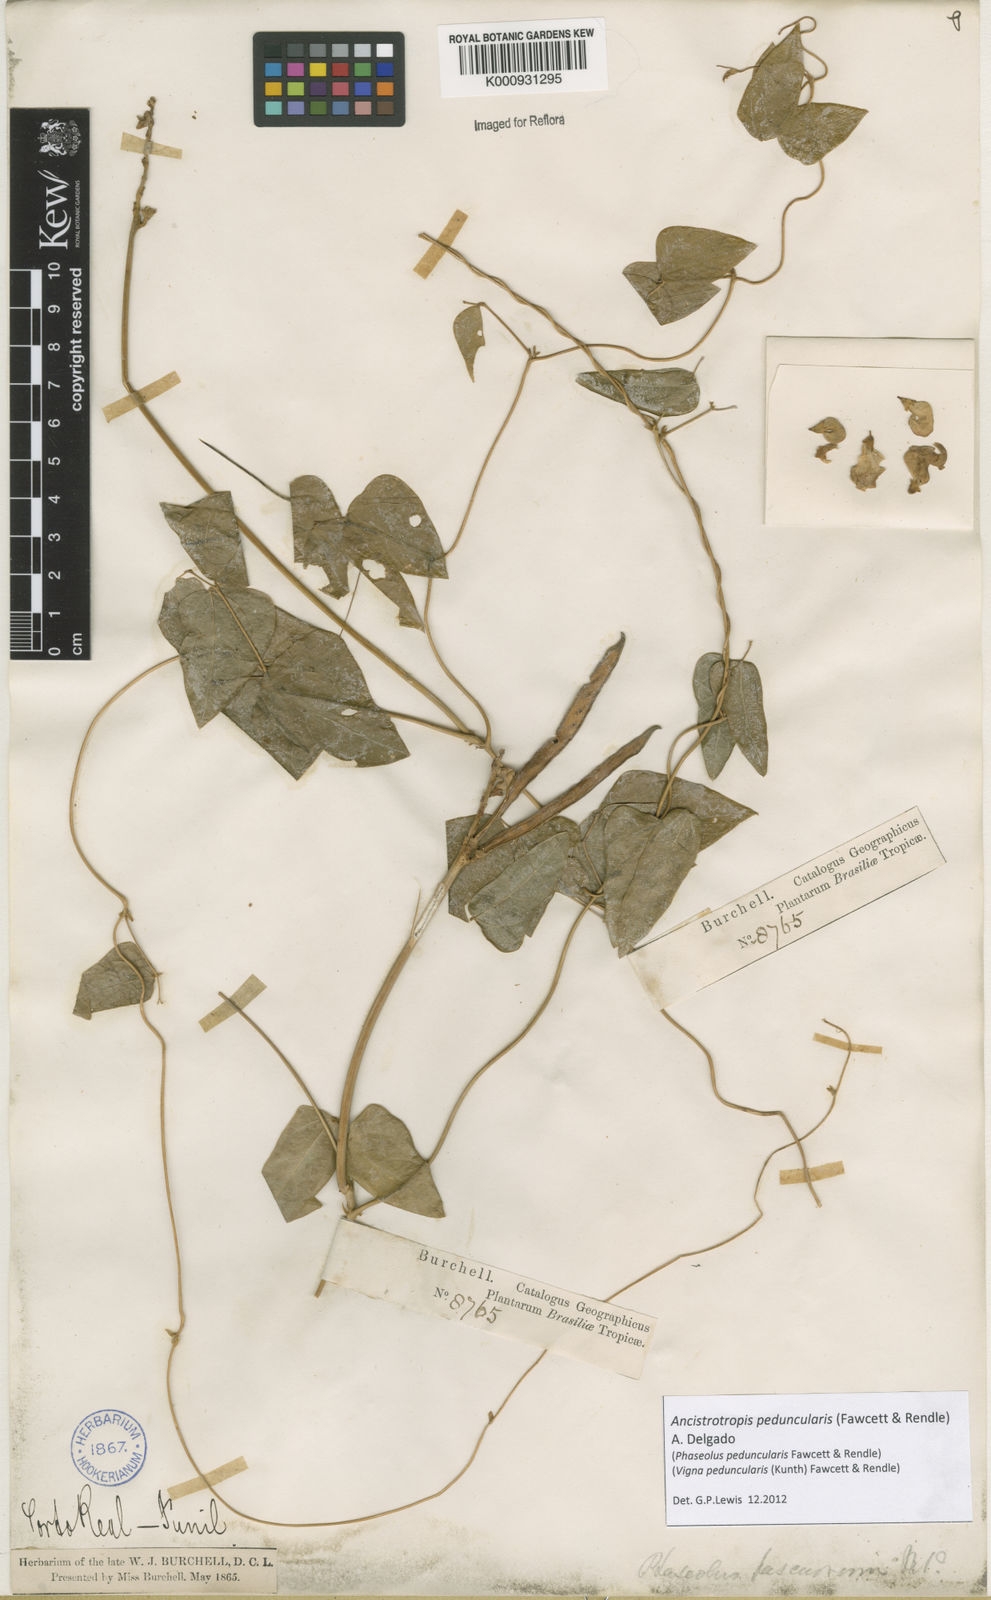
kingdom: Plantae
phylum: Tracheophyta
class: Magnoliopsida
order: Fabales
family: Fabaceae
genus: Ancistrotropis
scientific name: Ancistrotropis peduncularis
